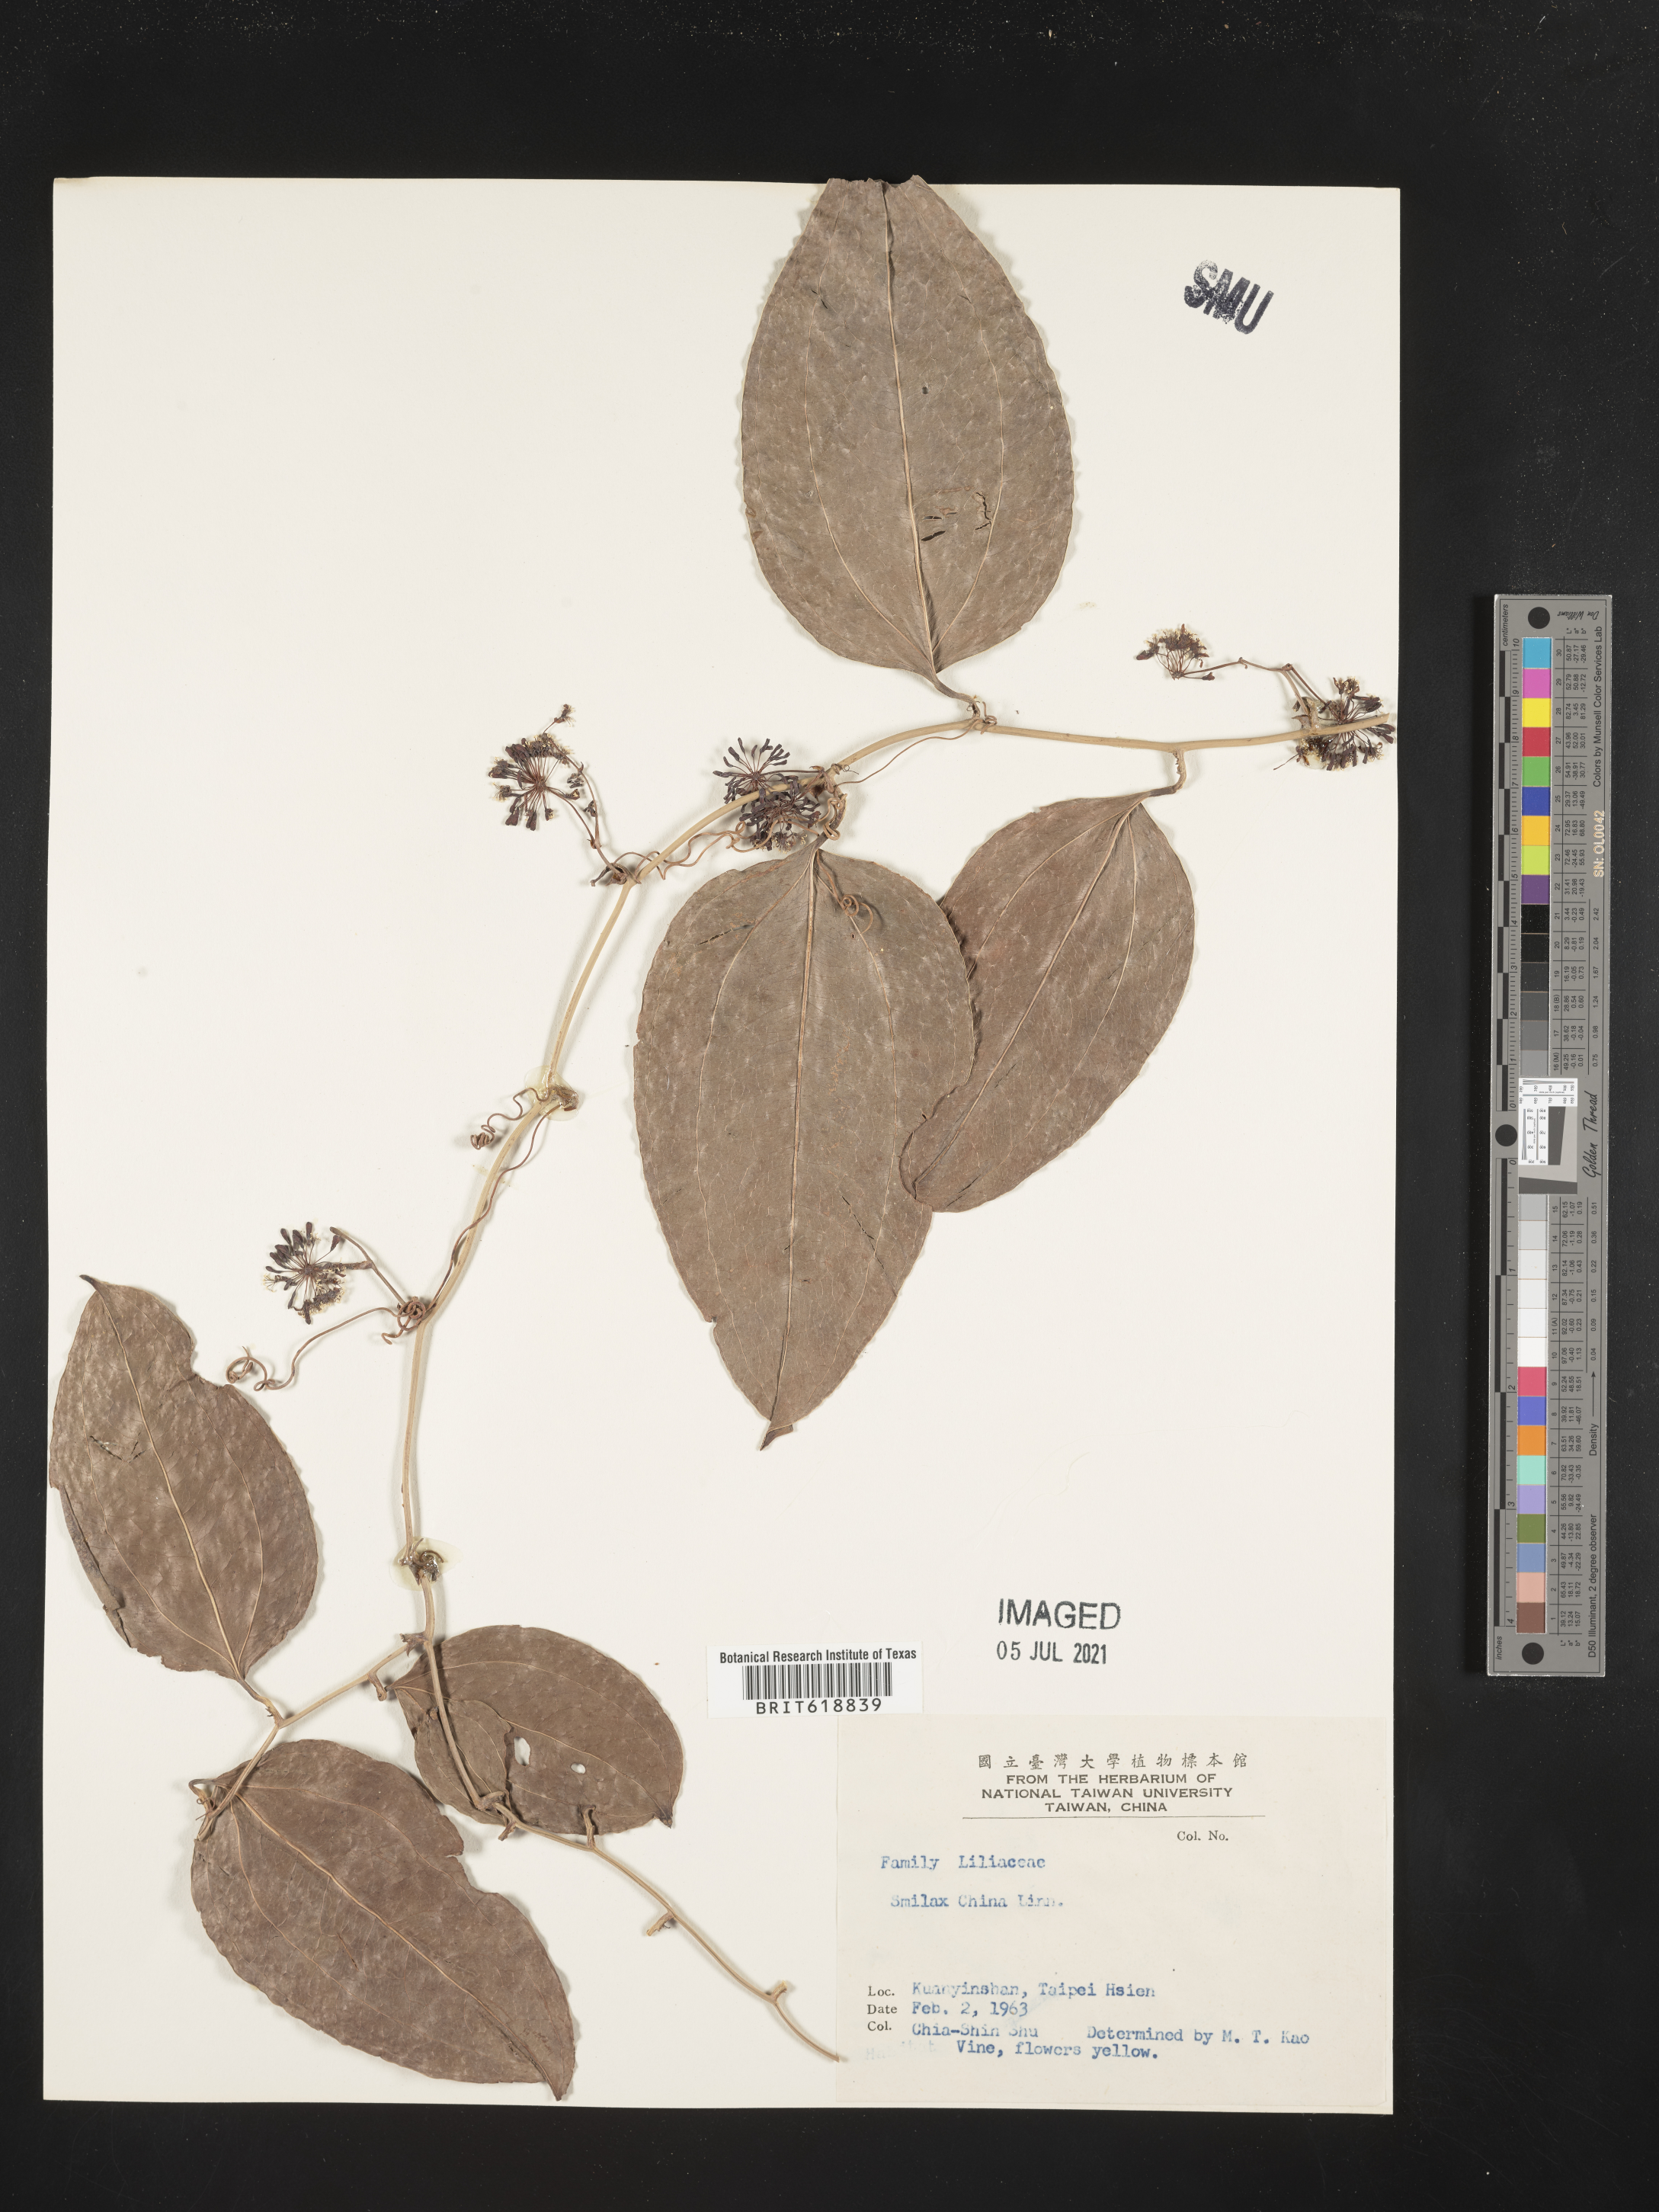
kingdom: Plantae
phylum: Tracheophyta
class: Liliopsida
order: Liliales
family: Smilacaceae
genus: Smilax
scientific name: Smilax china
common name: Chinaroot
